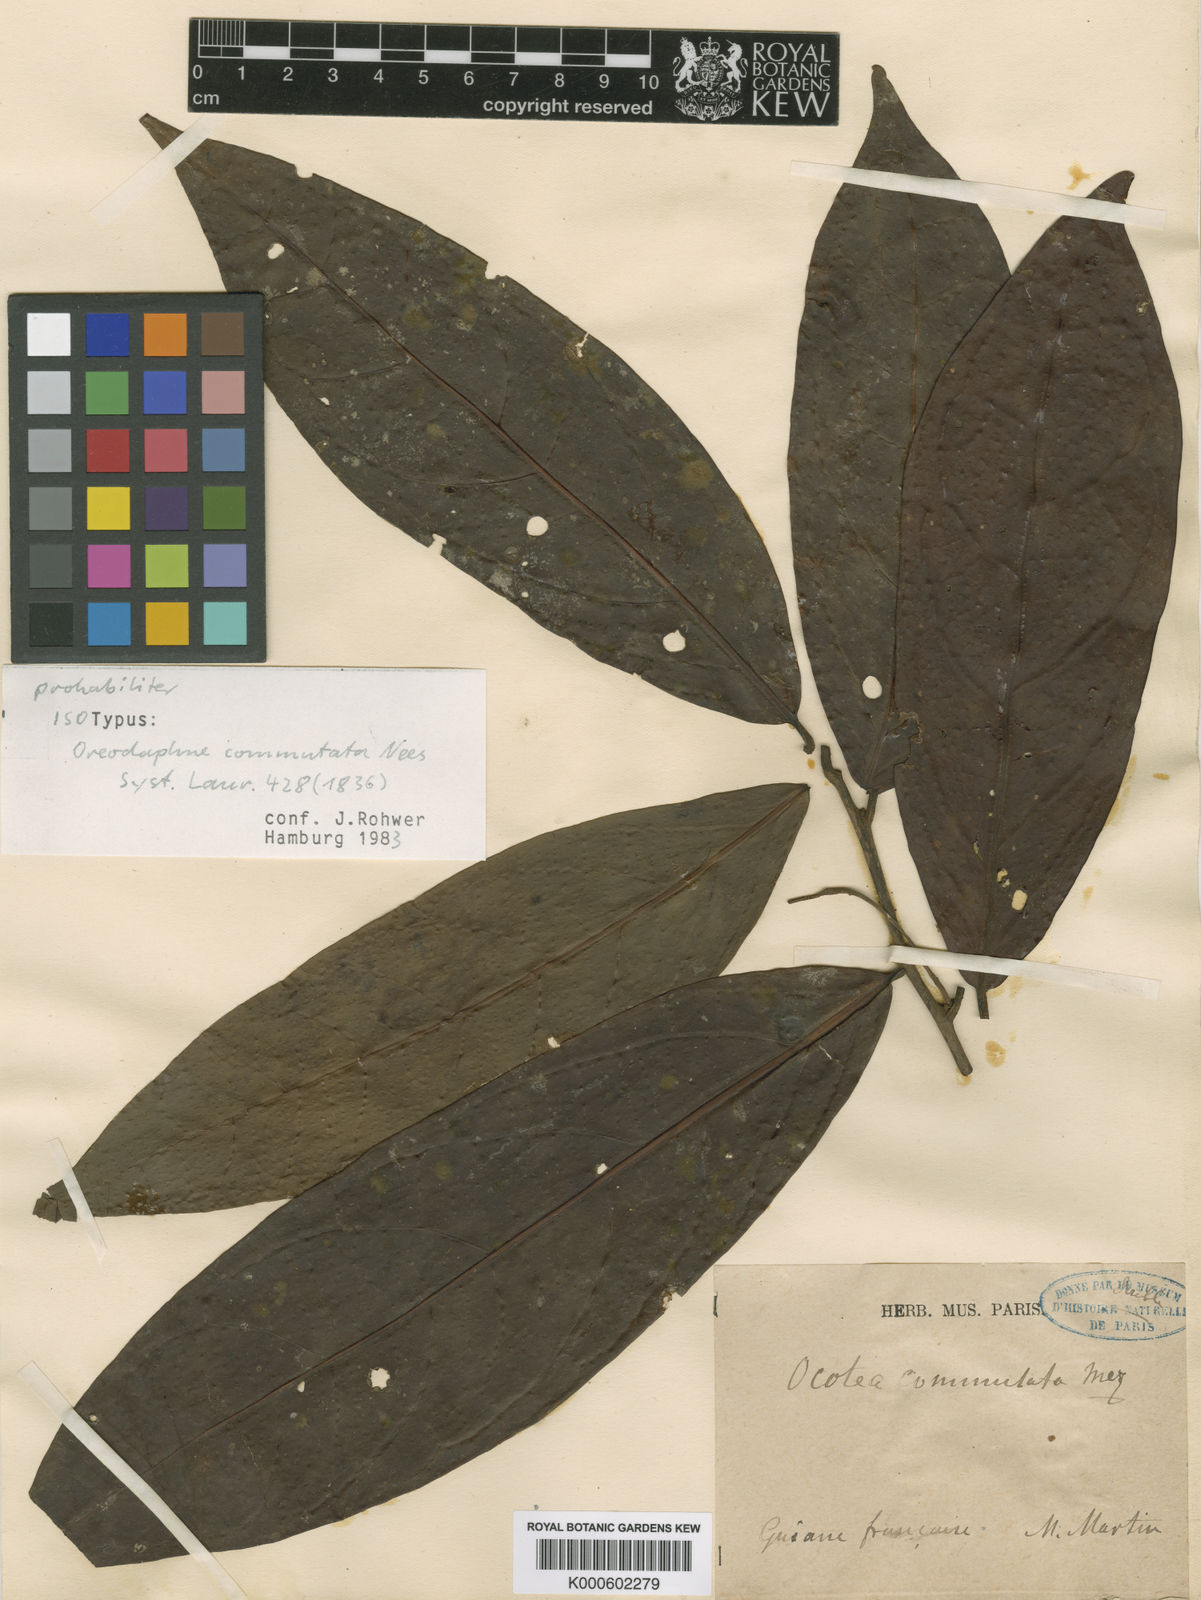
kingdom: Plantae
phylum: Tracheophyta
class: Magnoliopsida
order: Laurales
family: Lauraceae
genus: Ocotea
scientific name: Ocotea commutata
